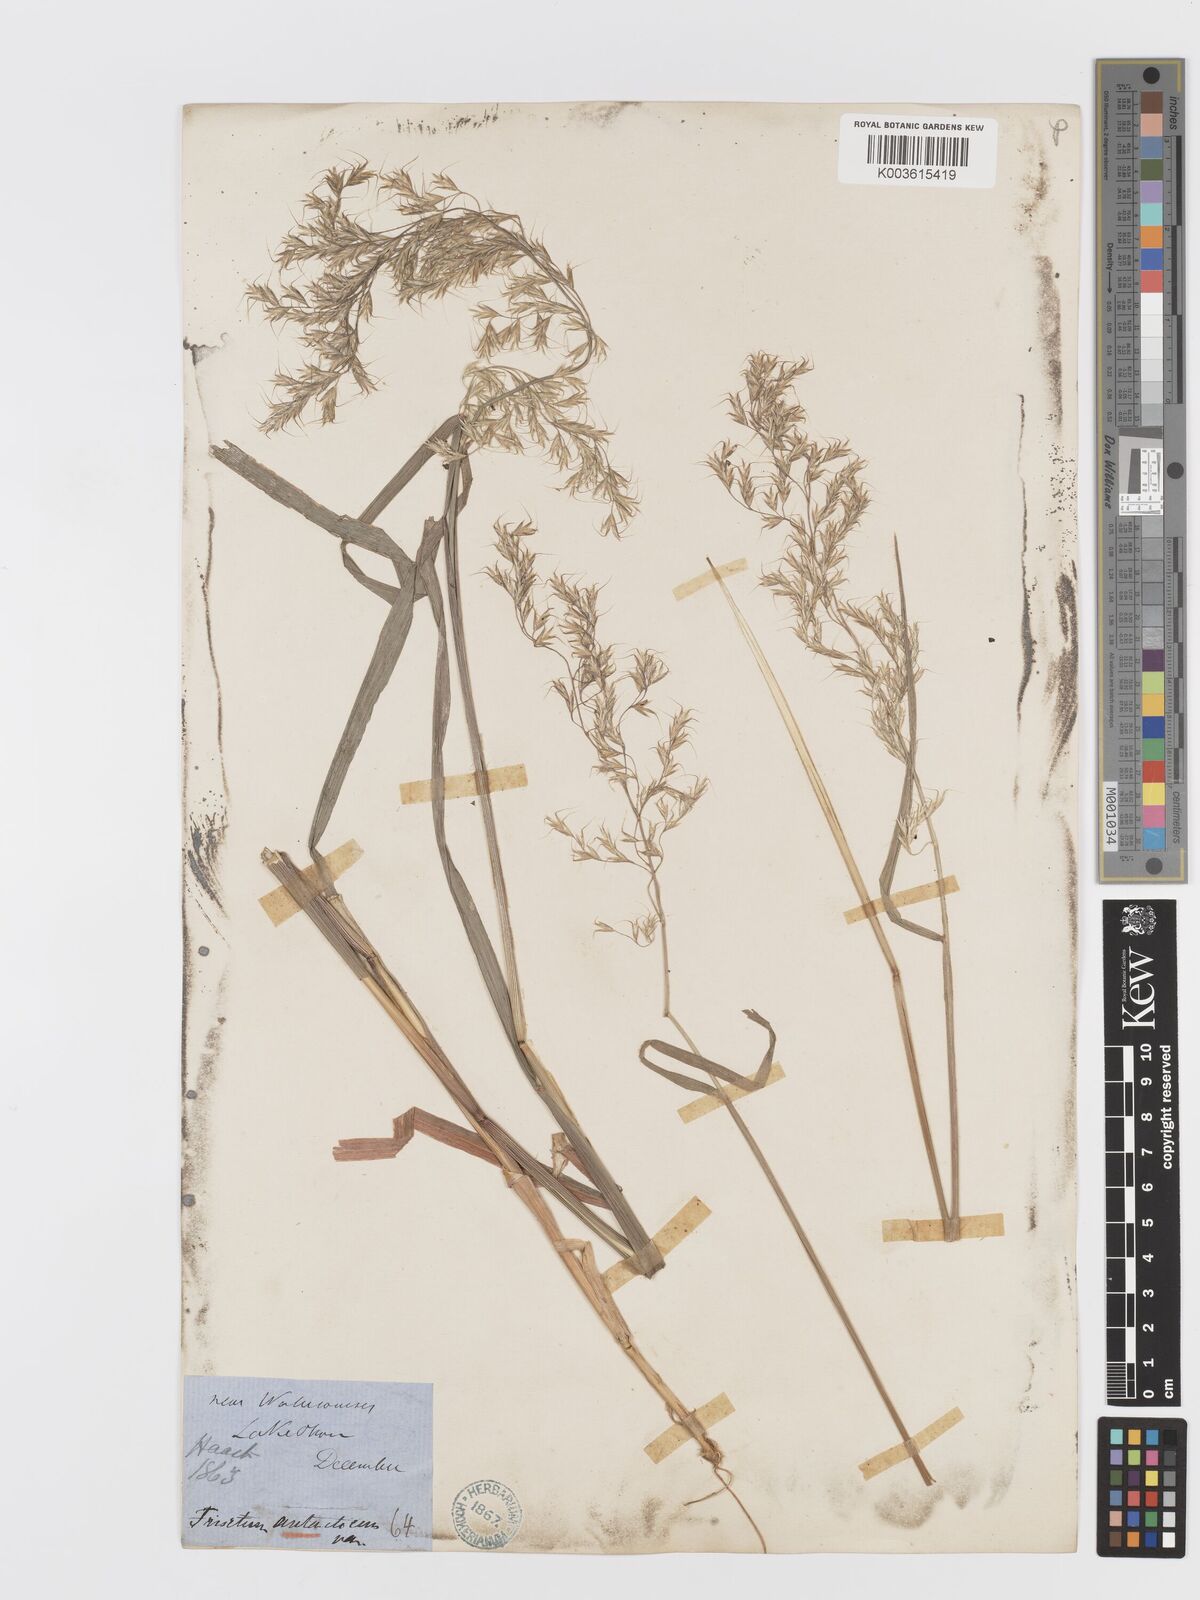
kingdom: Plantae
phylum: Tracheophyta
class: Liliopsida
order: Poales
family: Poaceae
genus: Koeleria
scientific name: Koeleria antarctica
